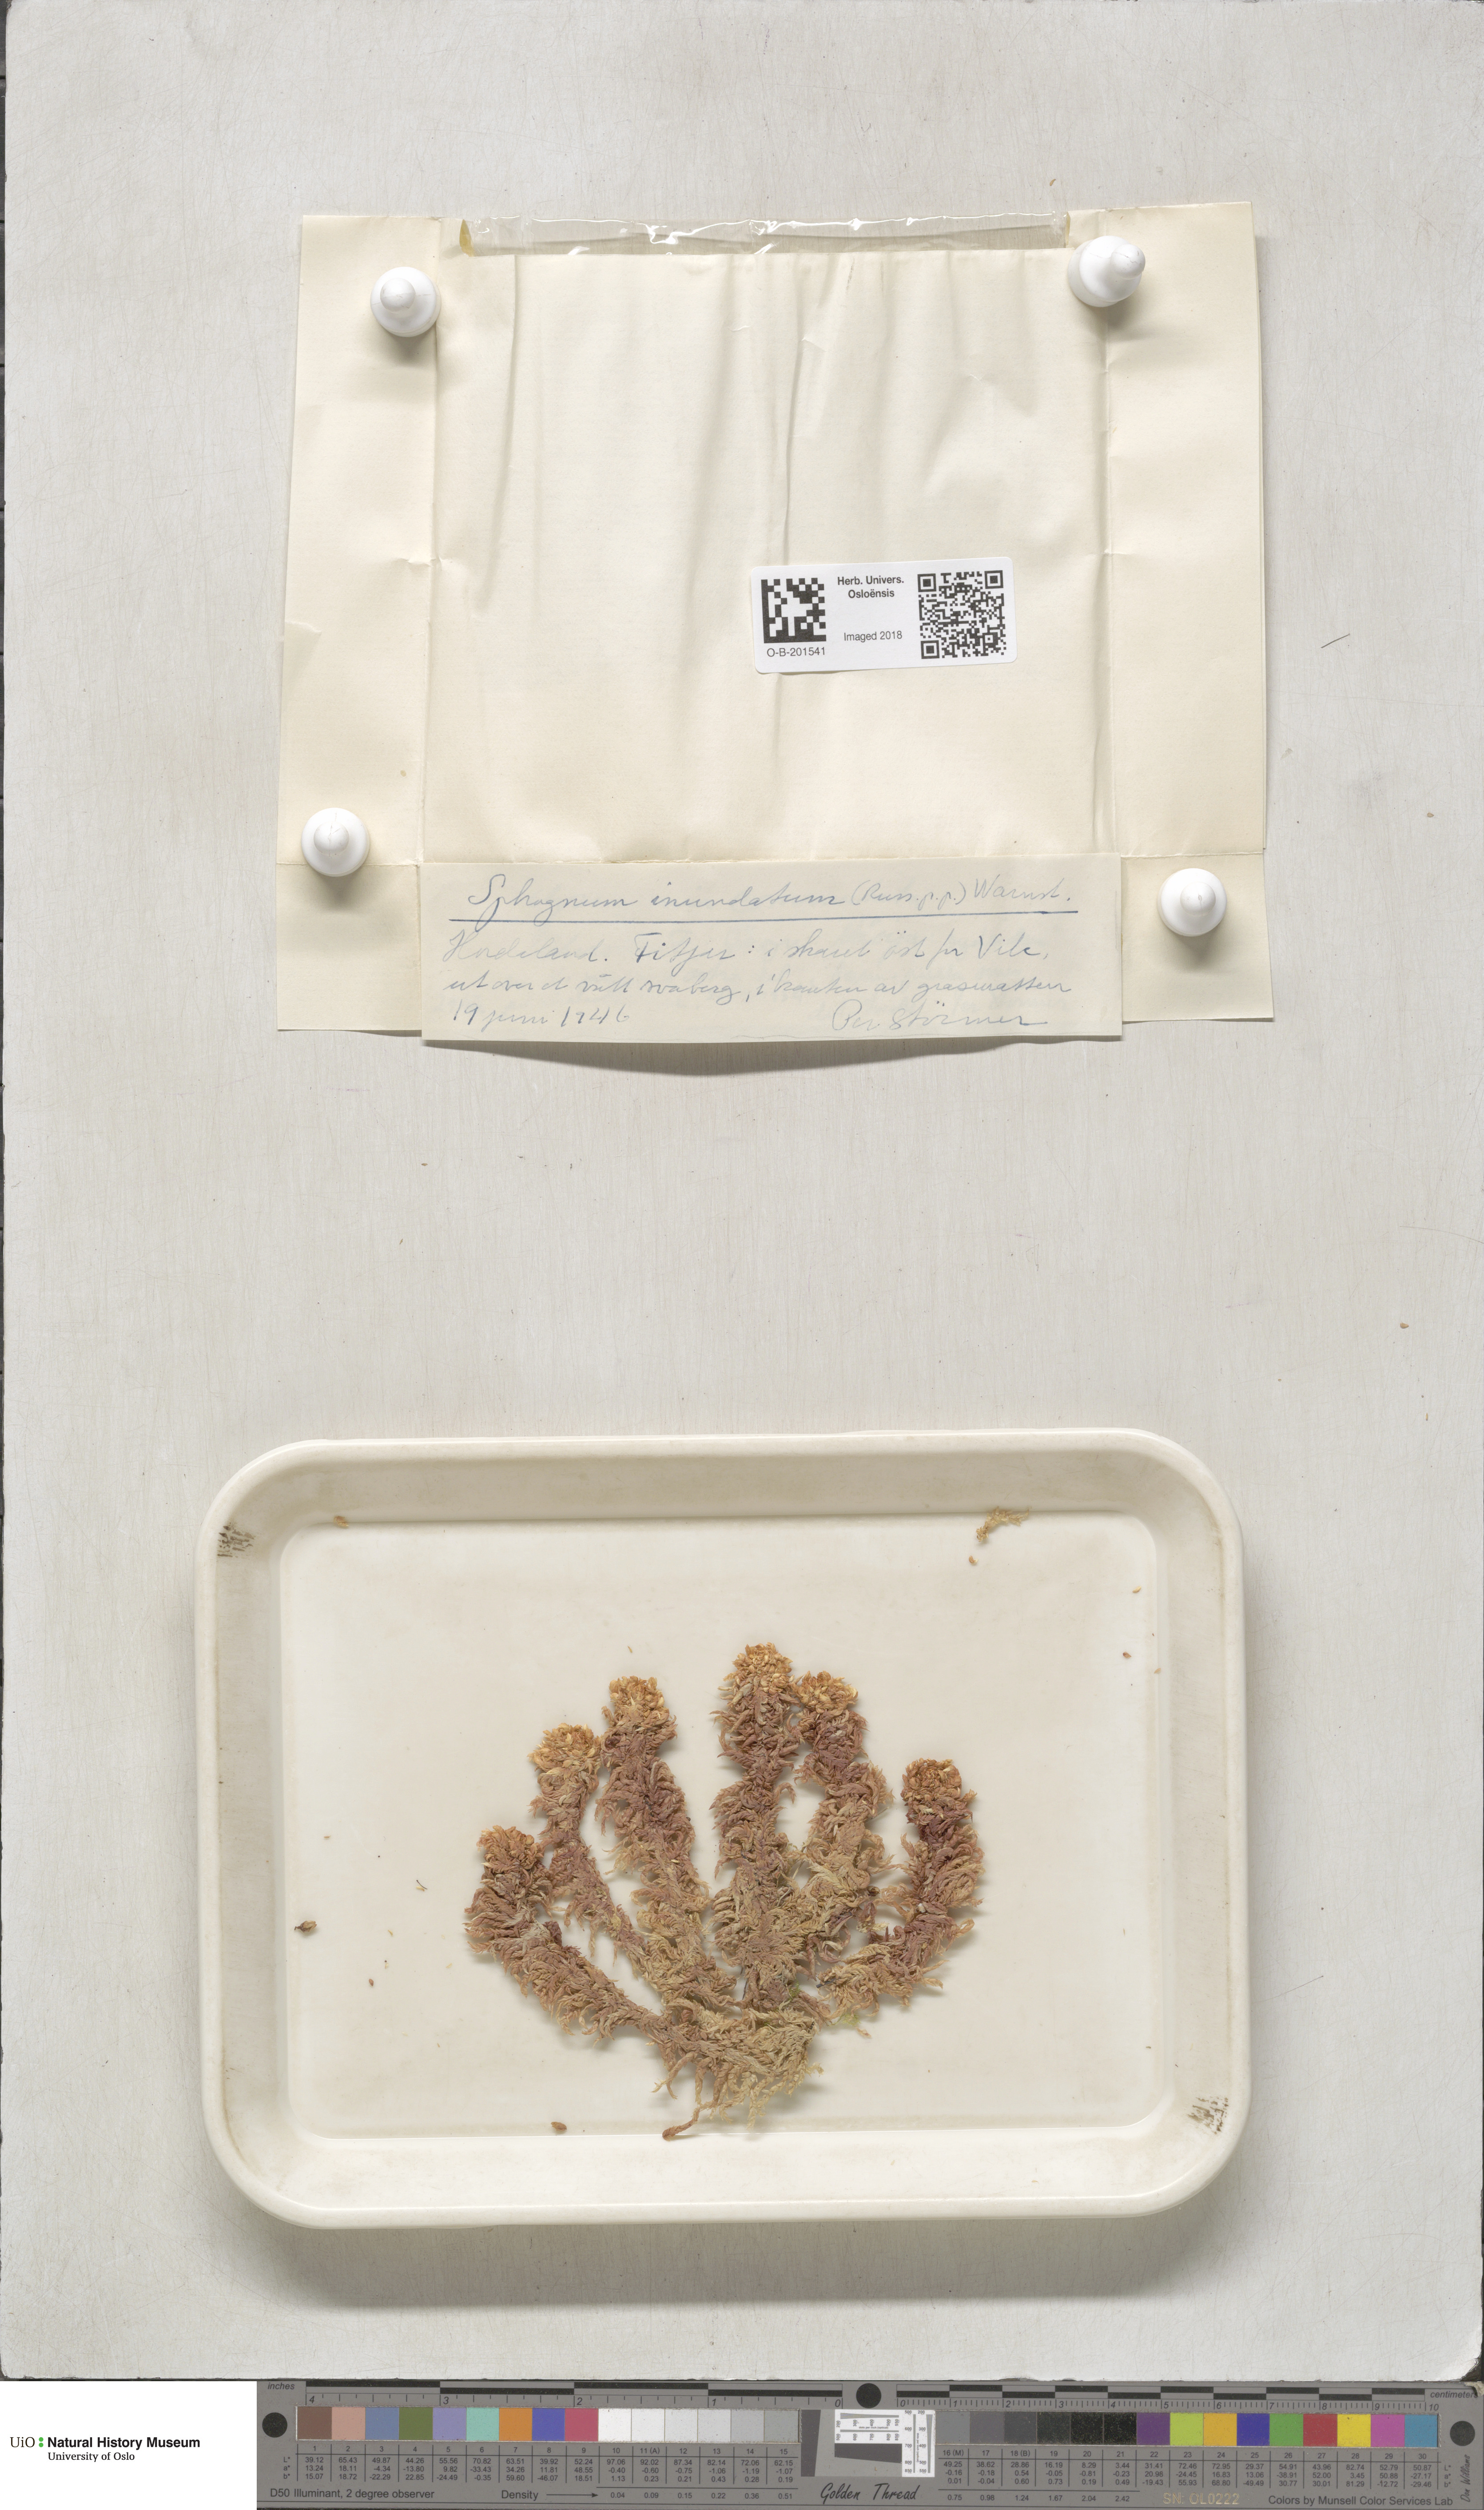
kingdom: Plantae
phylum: Bryophyta
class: Sphagnopsida
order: Sphagnales
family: Sphagnaceae
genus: Sphagnum
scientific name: Sphagnum inundatum
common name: Lesser cow-horn bog-moss
